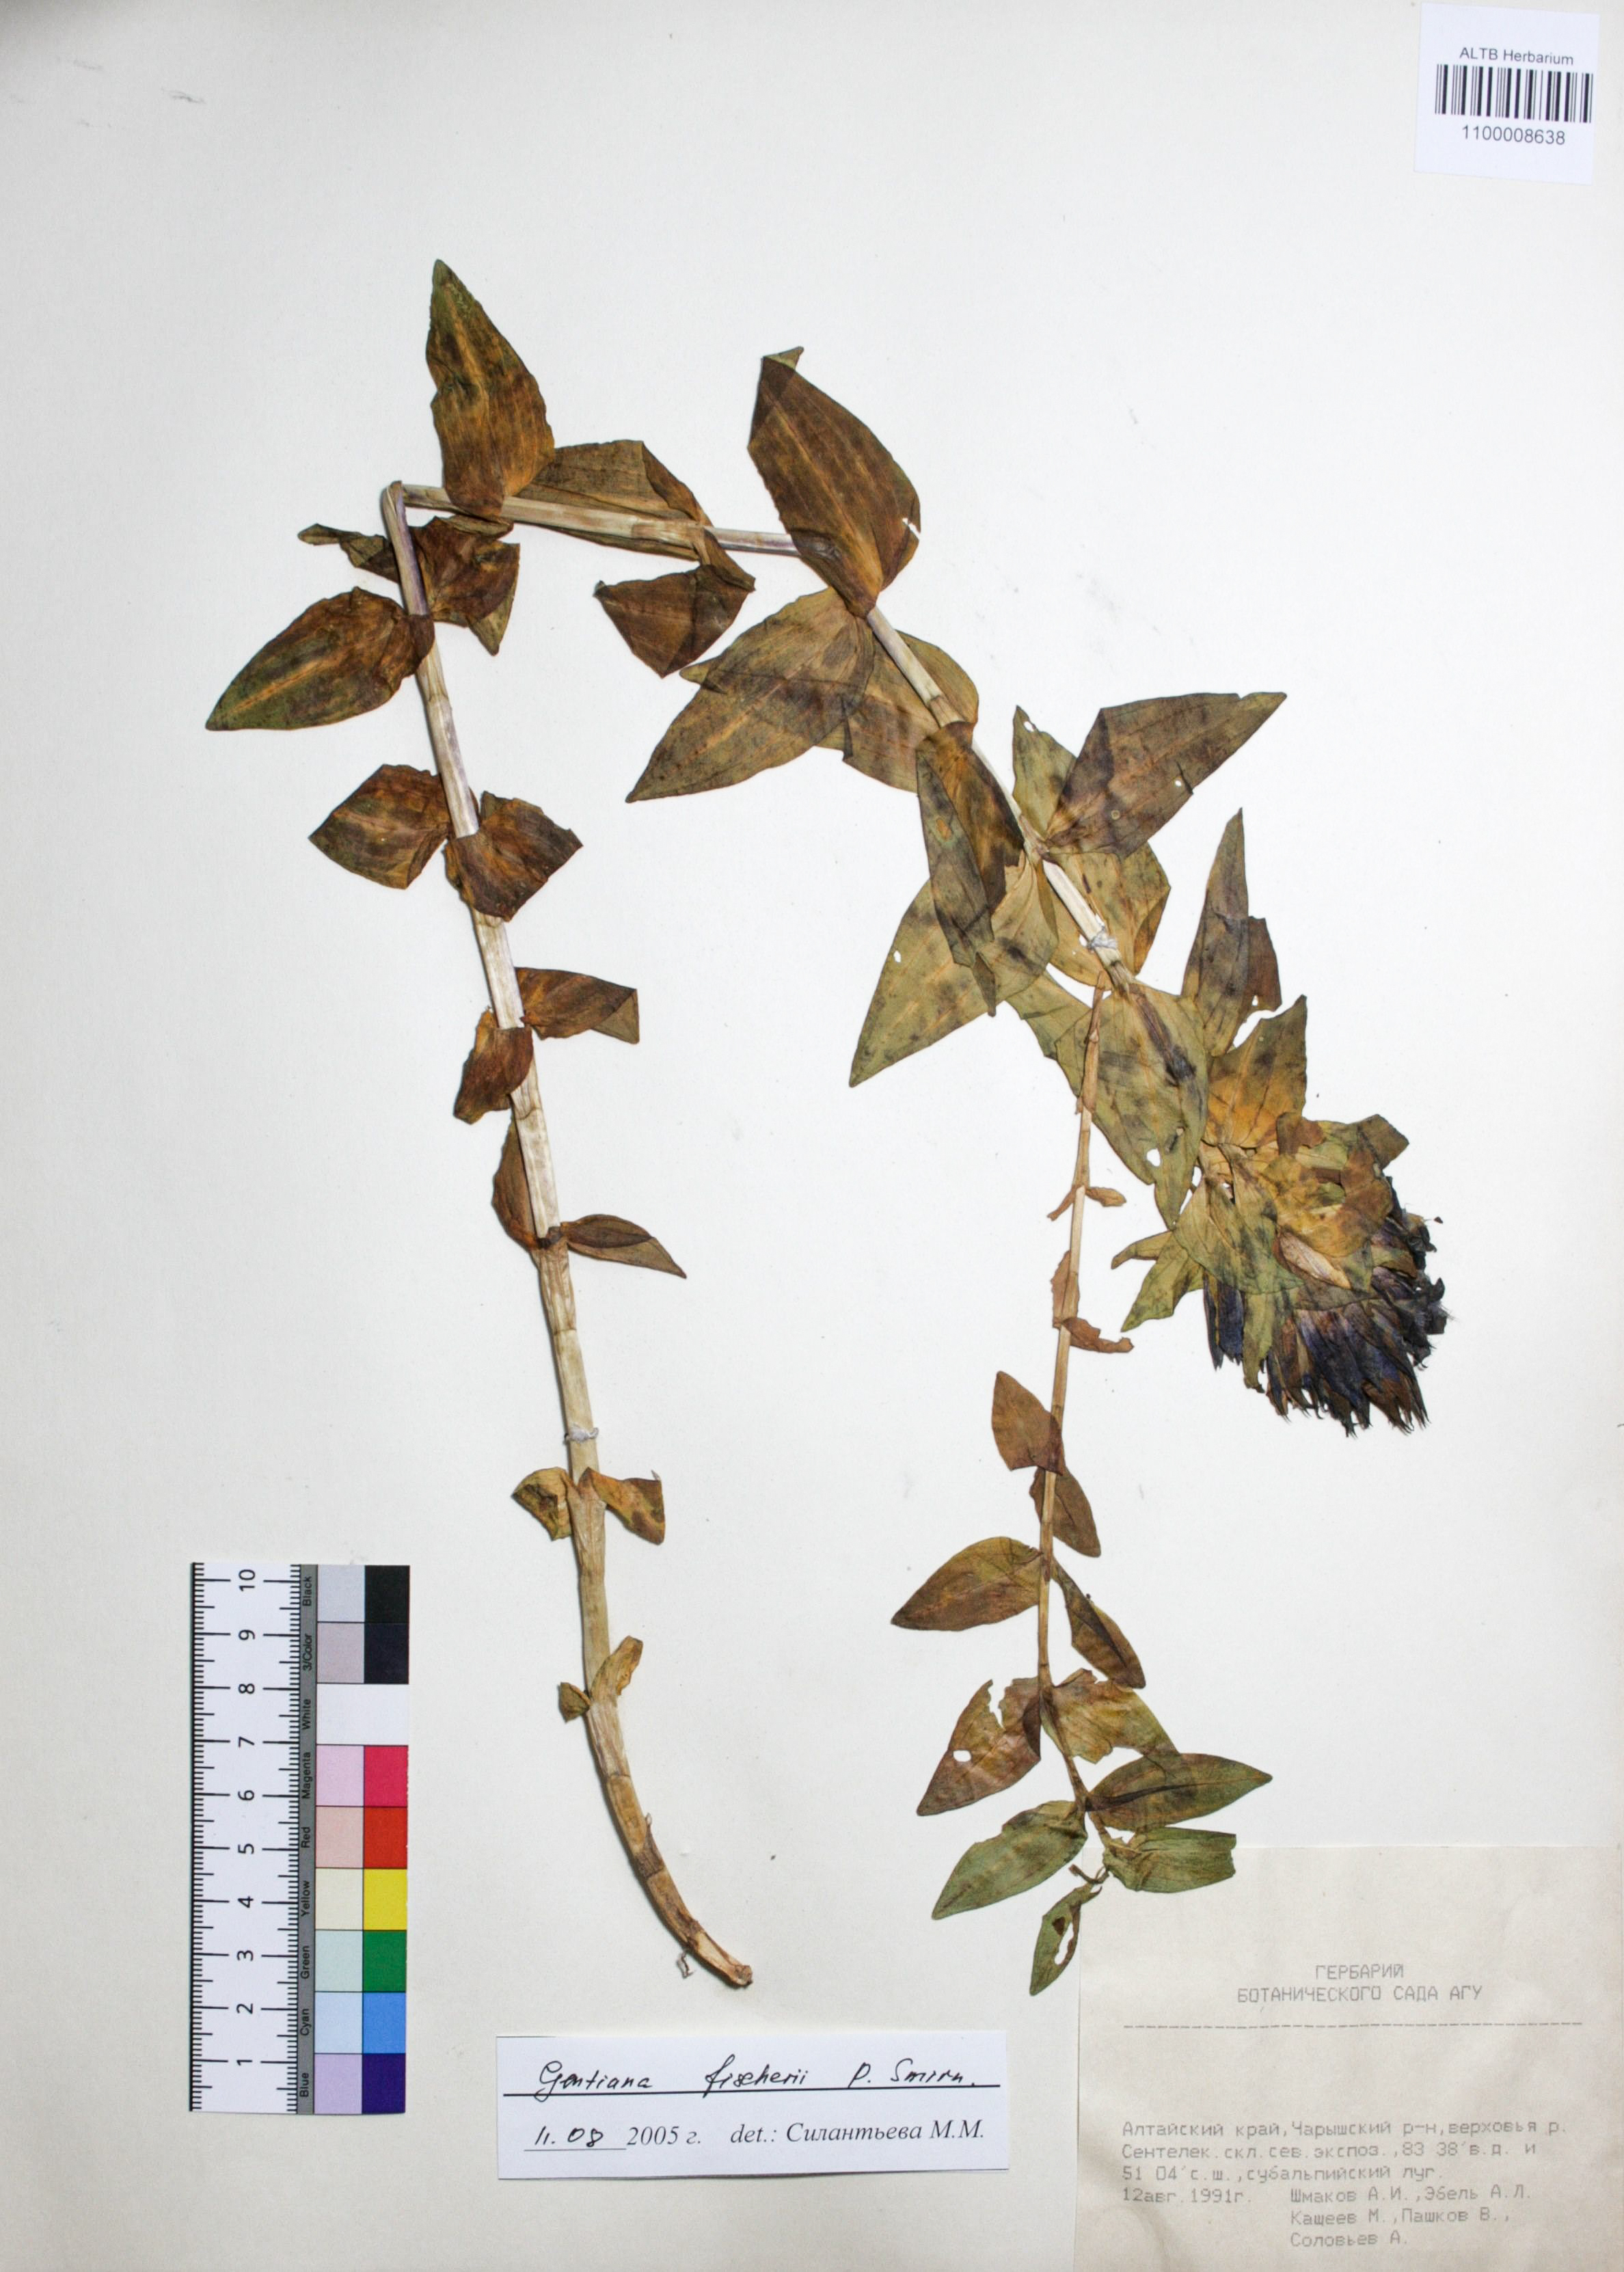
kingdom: Plantae
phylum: Tracheophyta
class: Magnoliopsida
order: Gentianales
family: Gentianaceae
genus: Gentiana
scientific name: Gentiana dschungarica
